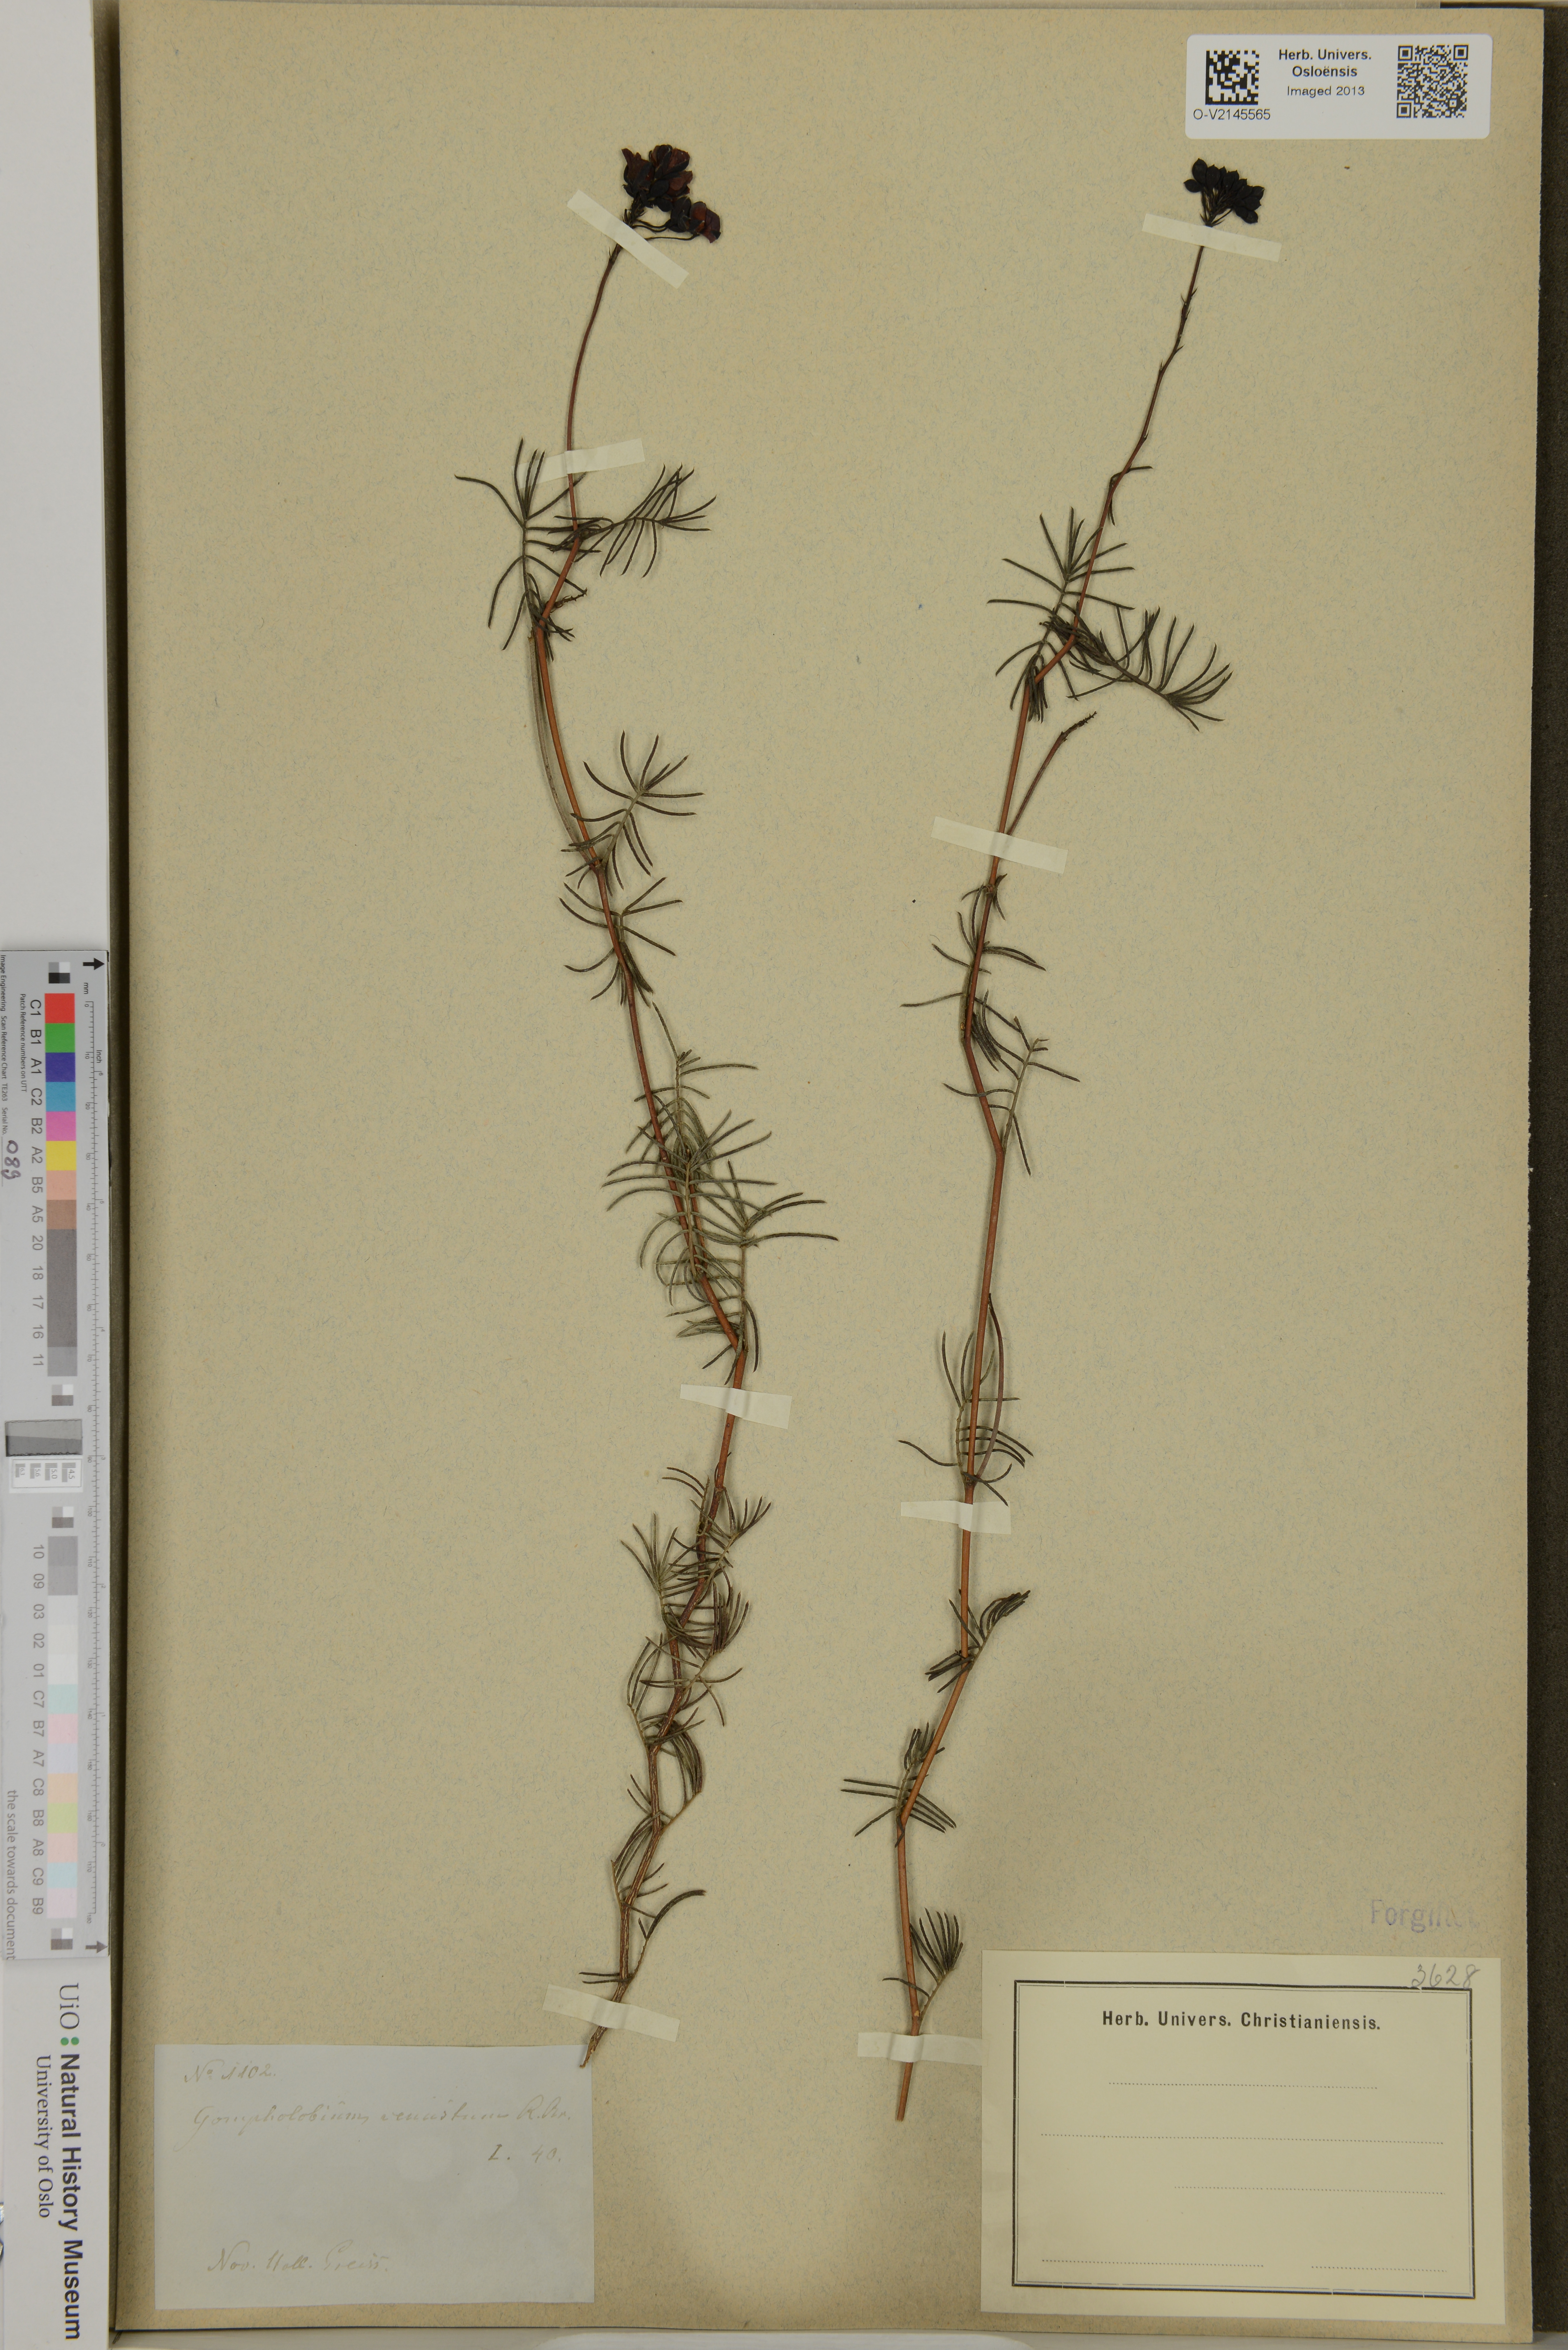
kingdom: Plantae
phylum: Tracheophyta
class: Magnoliopsida
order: Fabales
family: Fabaceae
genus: Gompholobium
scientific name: Gompholobium venustum
